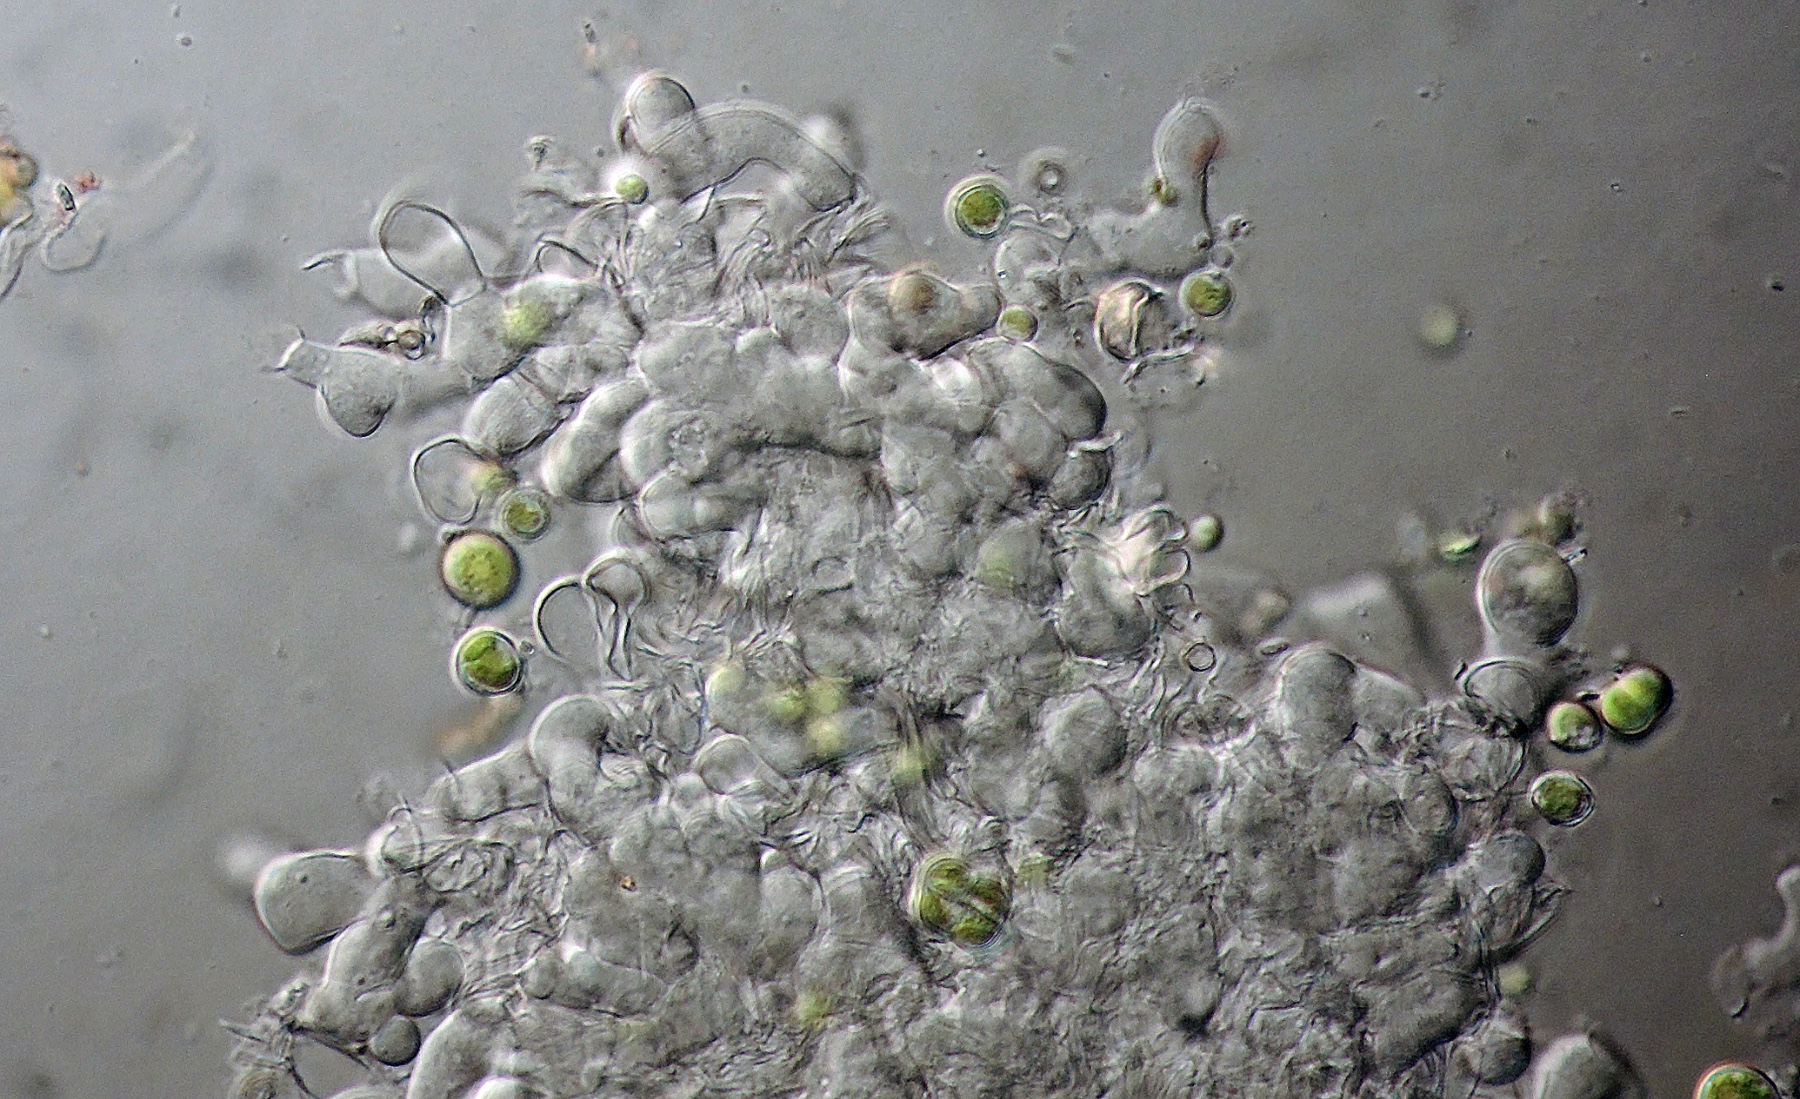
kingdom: Fungi
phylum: Basidiomycota
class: Agaricomycetes
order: Cantharellales
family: Hydnaceae
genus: Burgoa
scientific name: Burgoa angulosa
